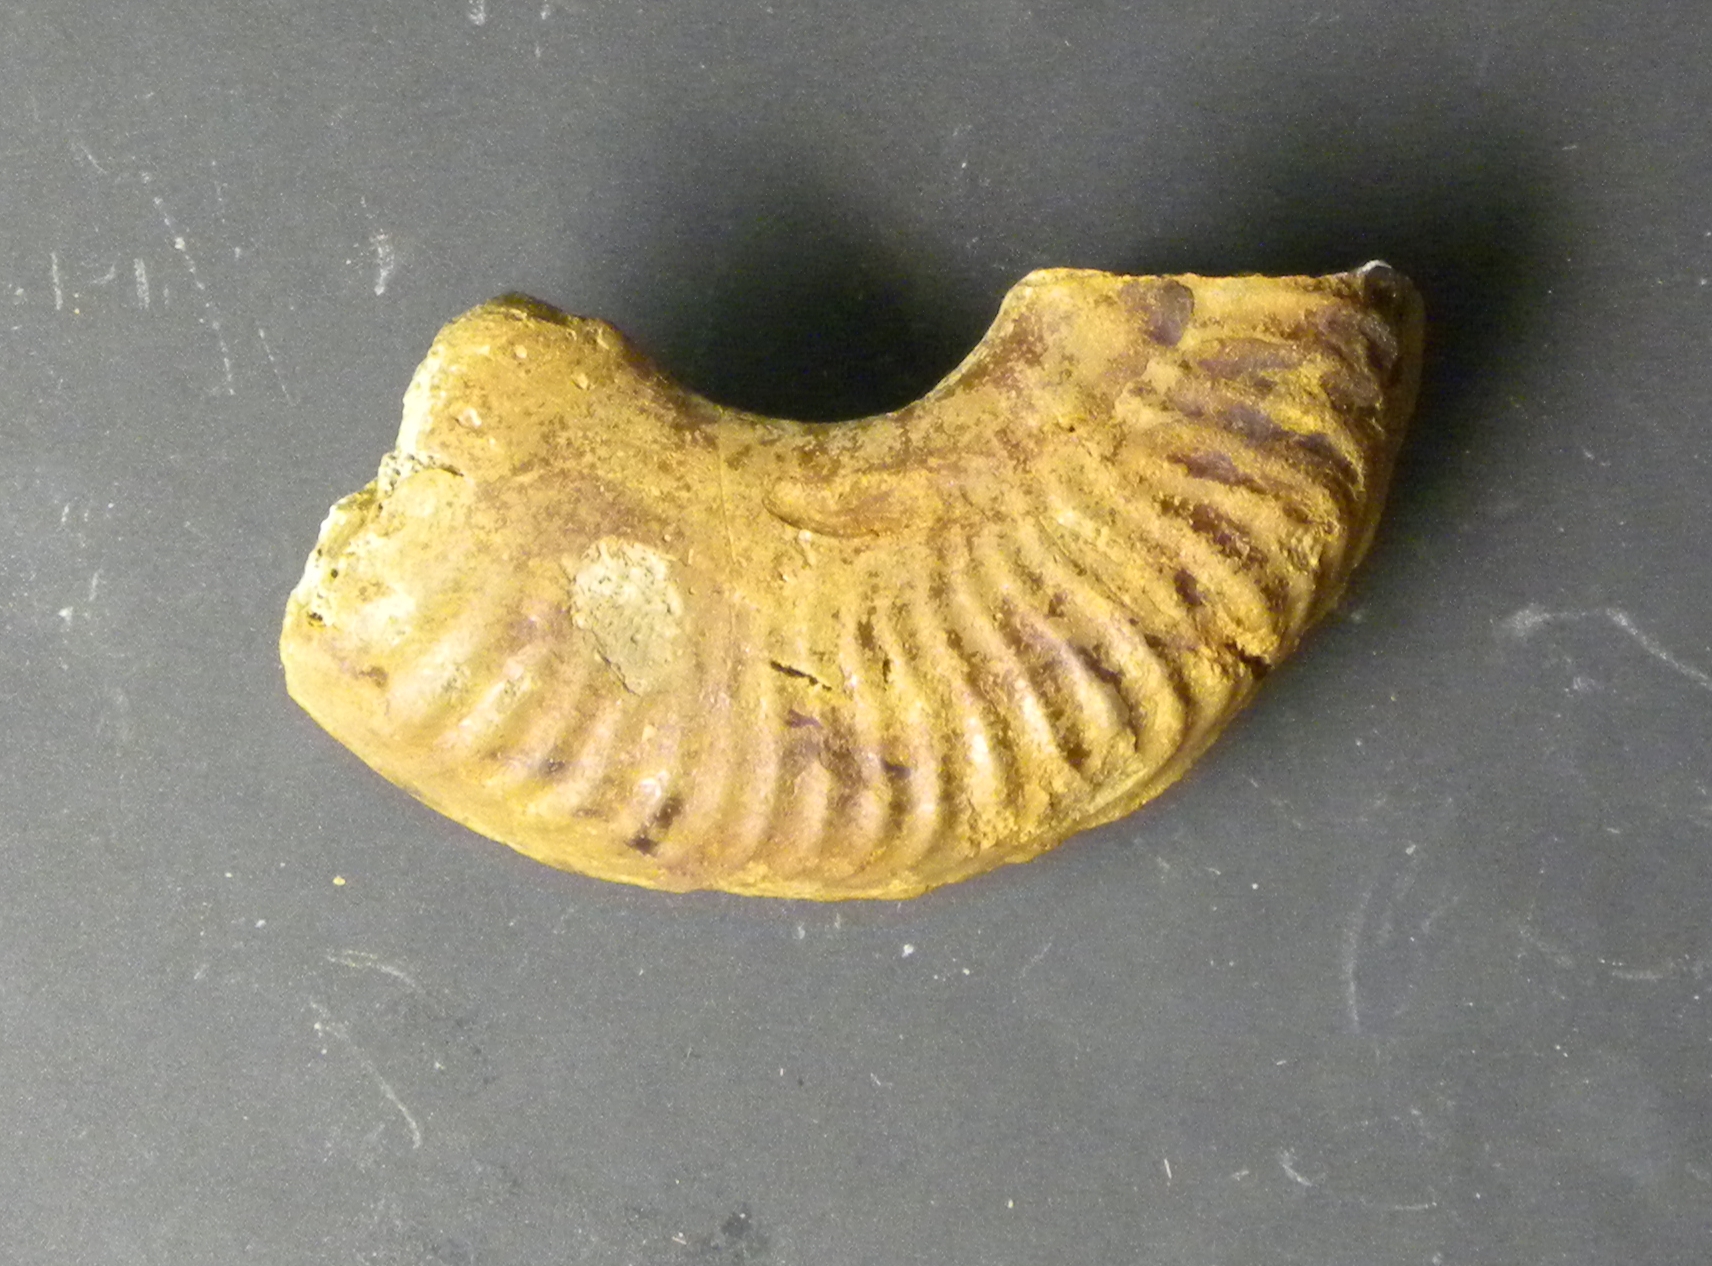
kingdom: Animalia
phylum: Mollusca
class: Cephalopoda
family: Hildoceratidae
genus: Pseudogrammoceras
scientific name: Pseudogrammoceras doerntense
